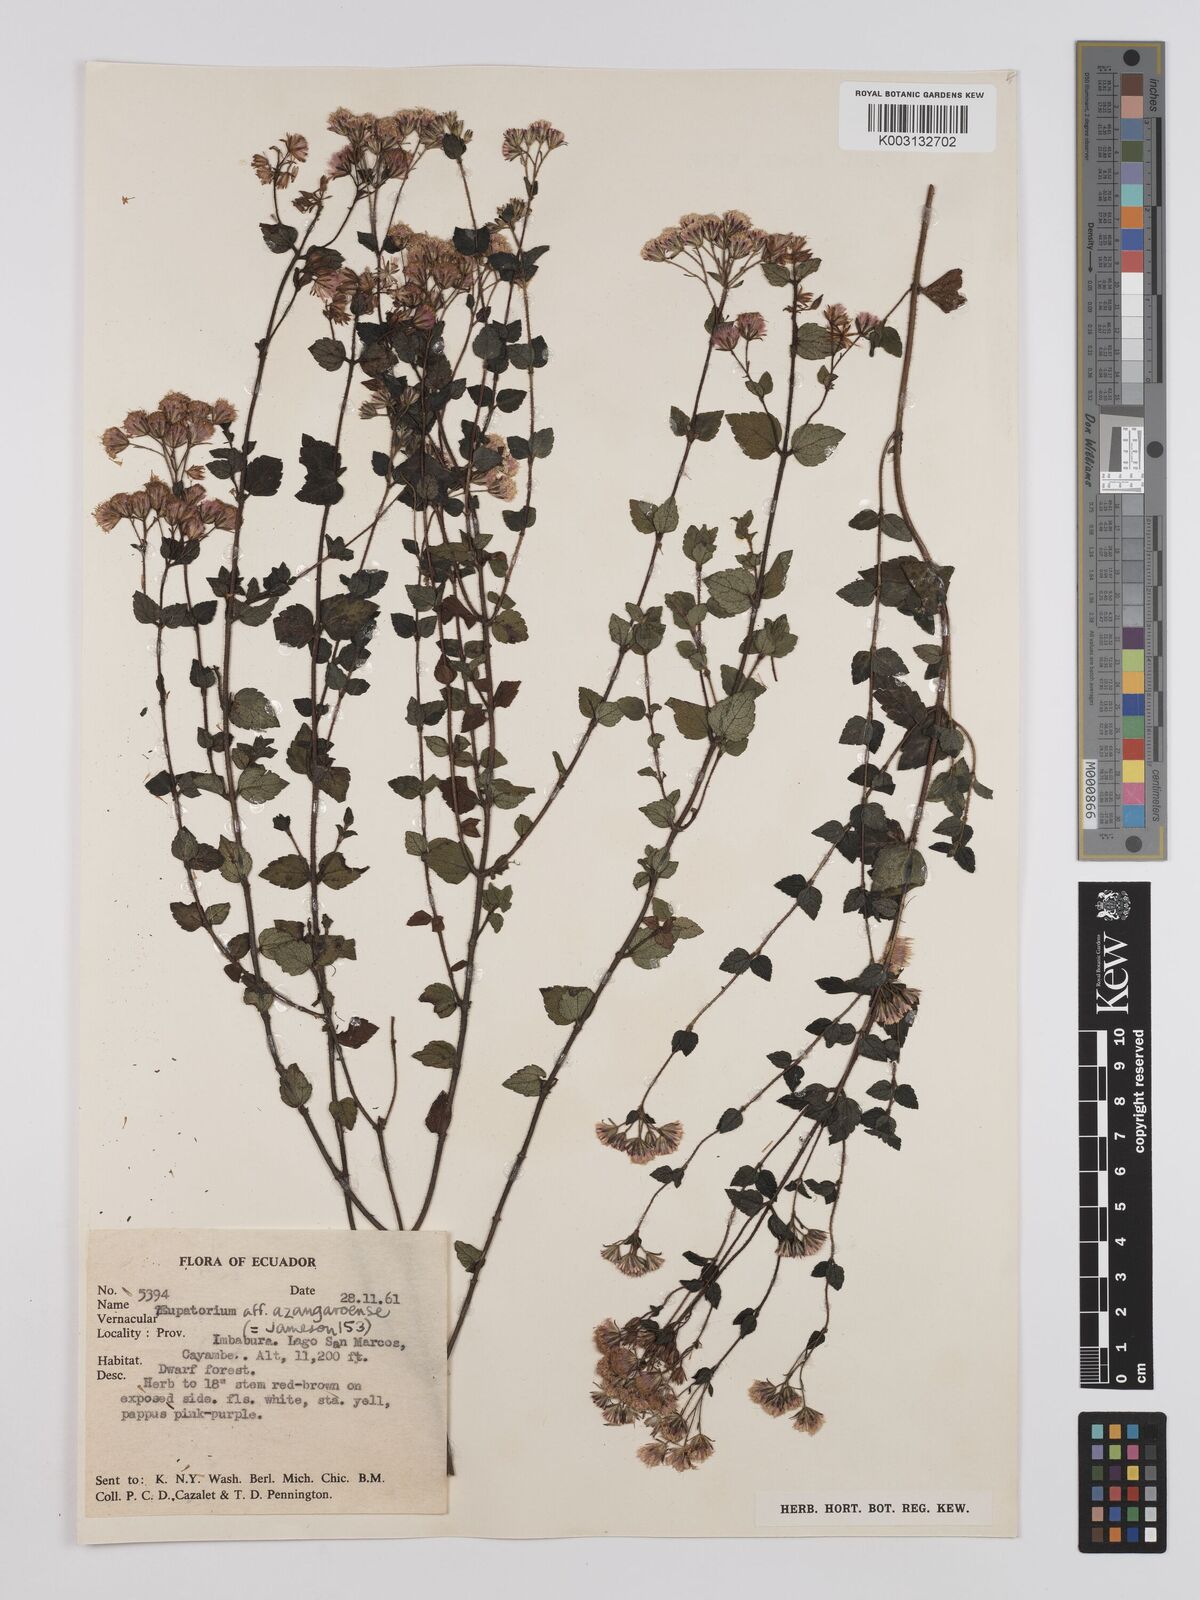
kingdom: Plantae
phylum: Tracheophyta
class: Magnoliopsida
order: Asterales
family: Asteraceae
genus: Ageratina
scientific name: Ageratina glechonophylla
